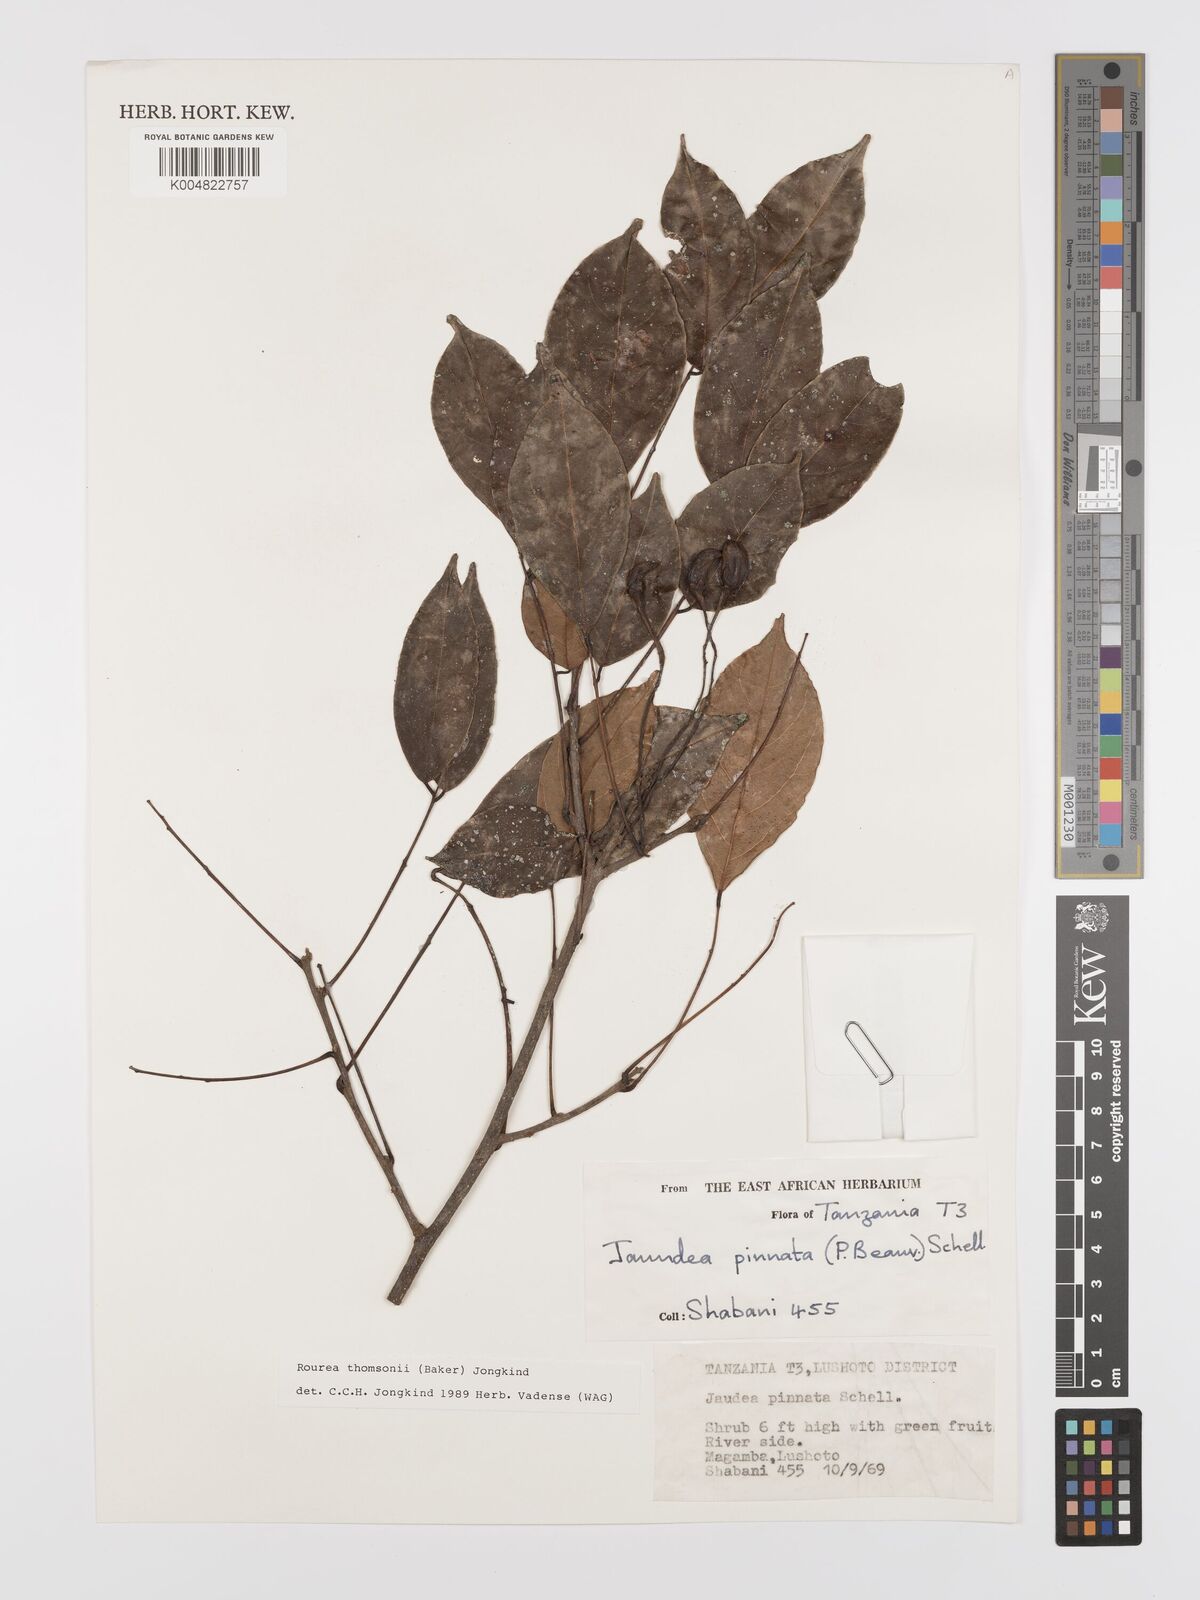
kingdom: Plantae
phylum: Tracheophyta
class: Magnoliopsida
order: Oxalidales
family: Connaraceae
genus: Rourea
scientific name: Rourea thomsonii
